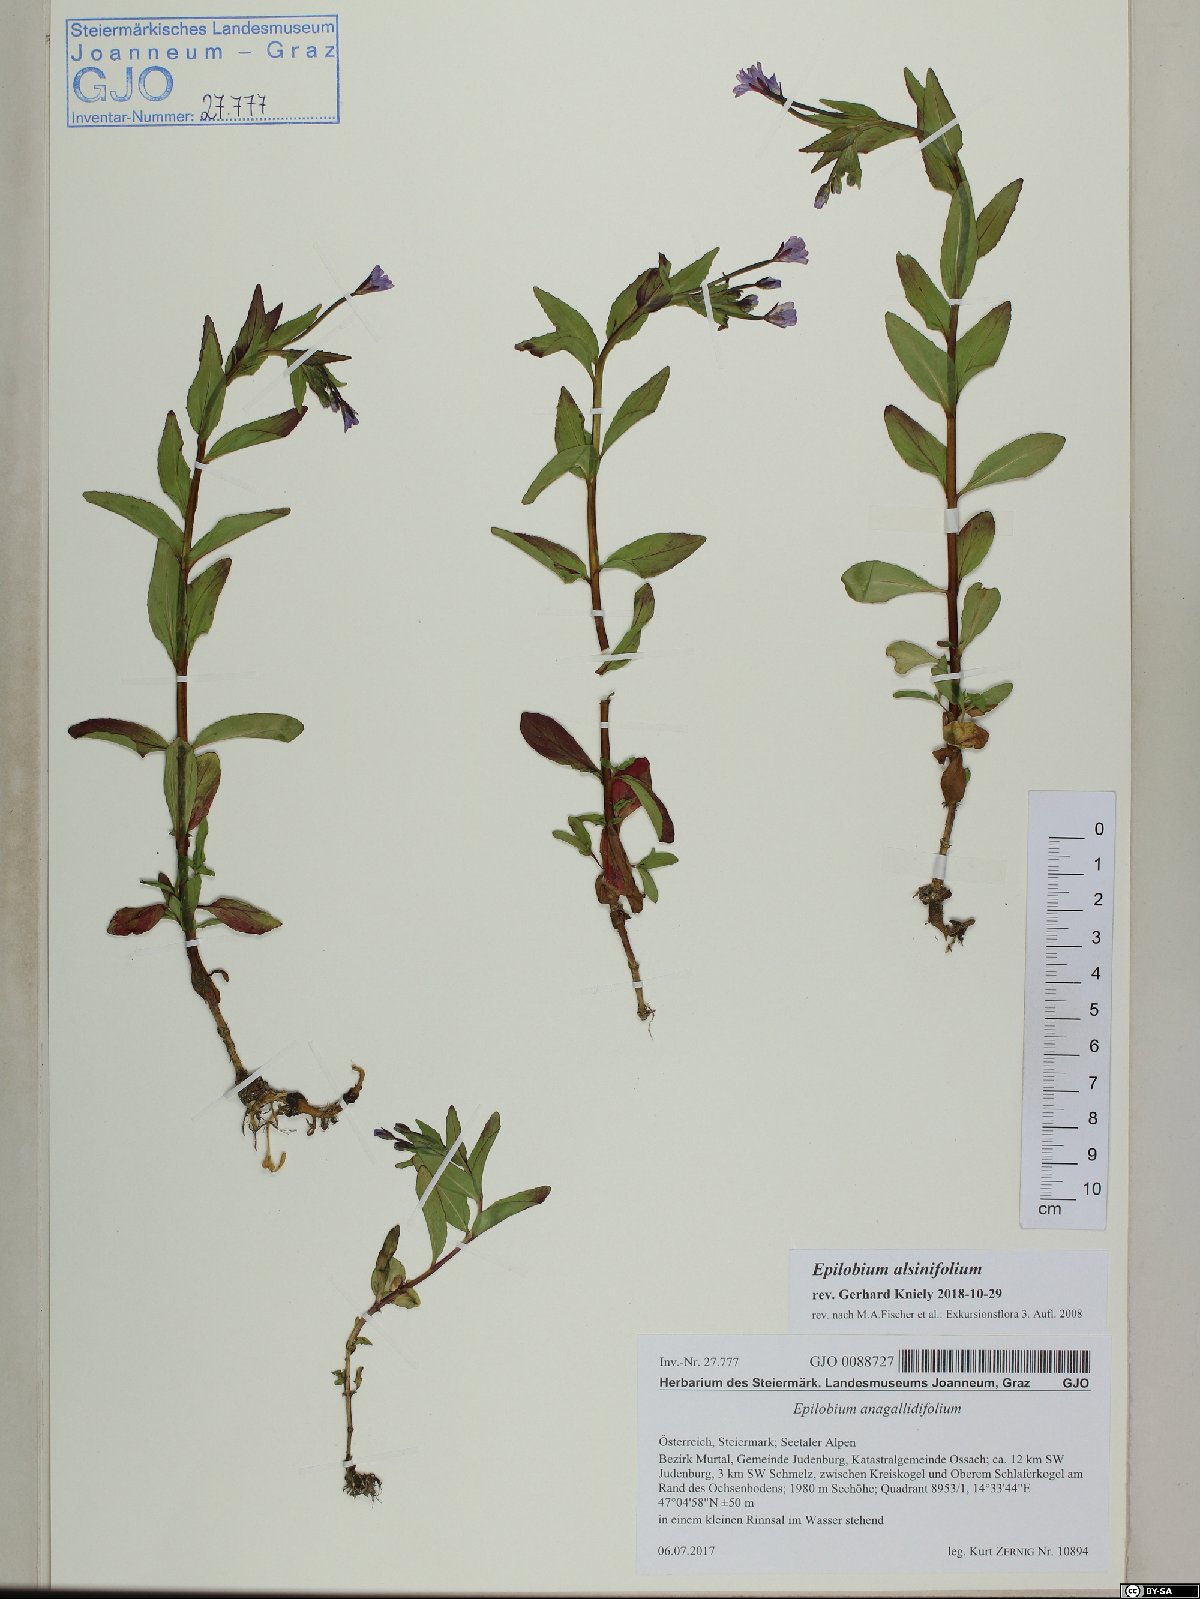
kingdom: Plantae
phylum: Tracheophyta
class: Magnoliopsida
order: Myrtales
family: Onagraceae
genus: Epilobium
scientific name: Epilobium alsinifolium
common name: Chickweed willowherb
